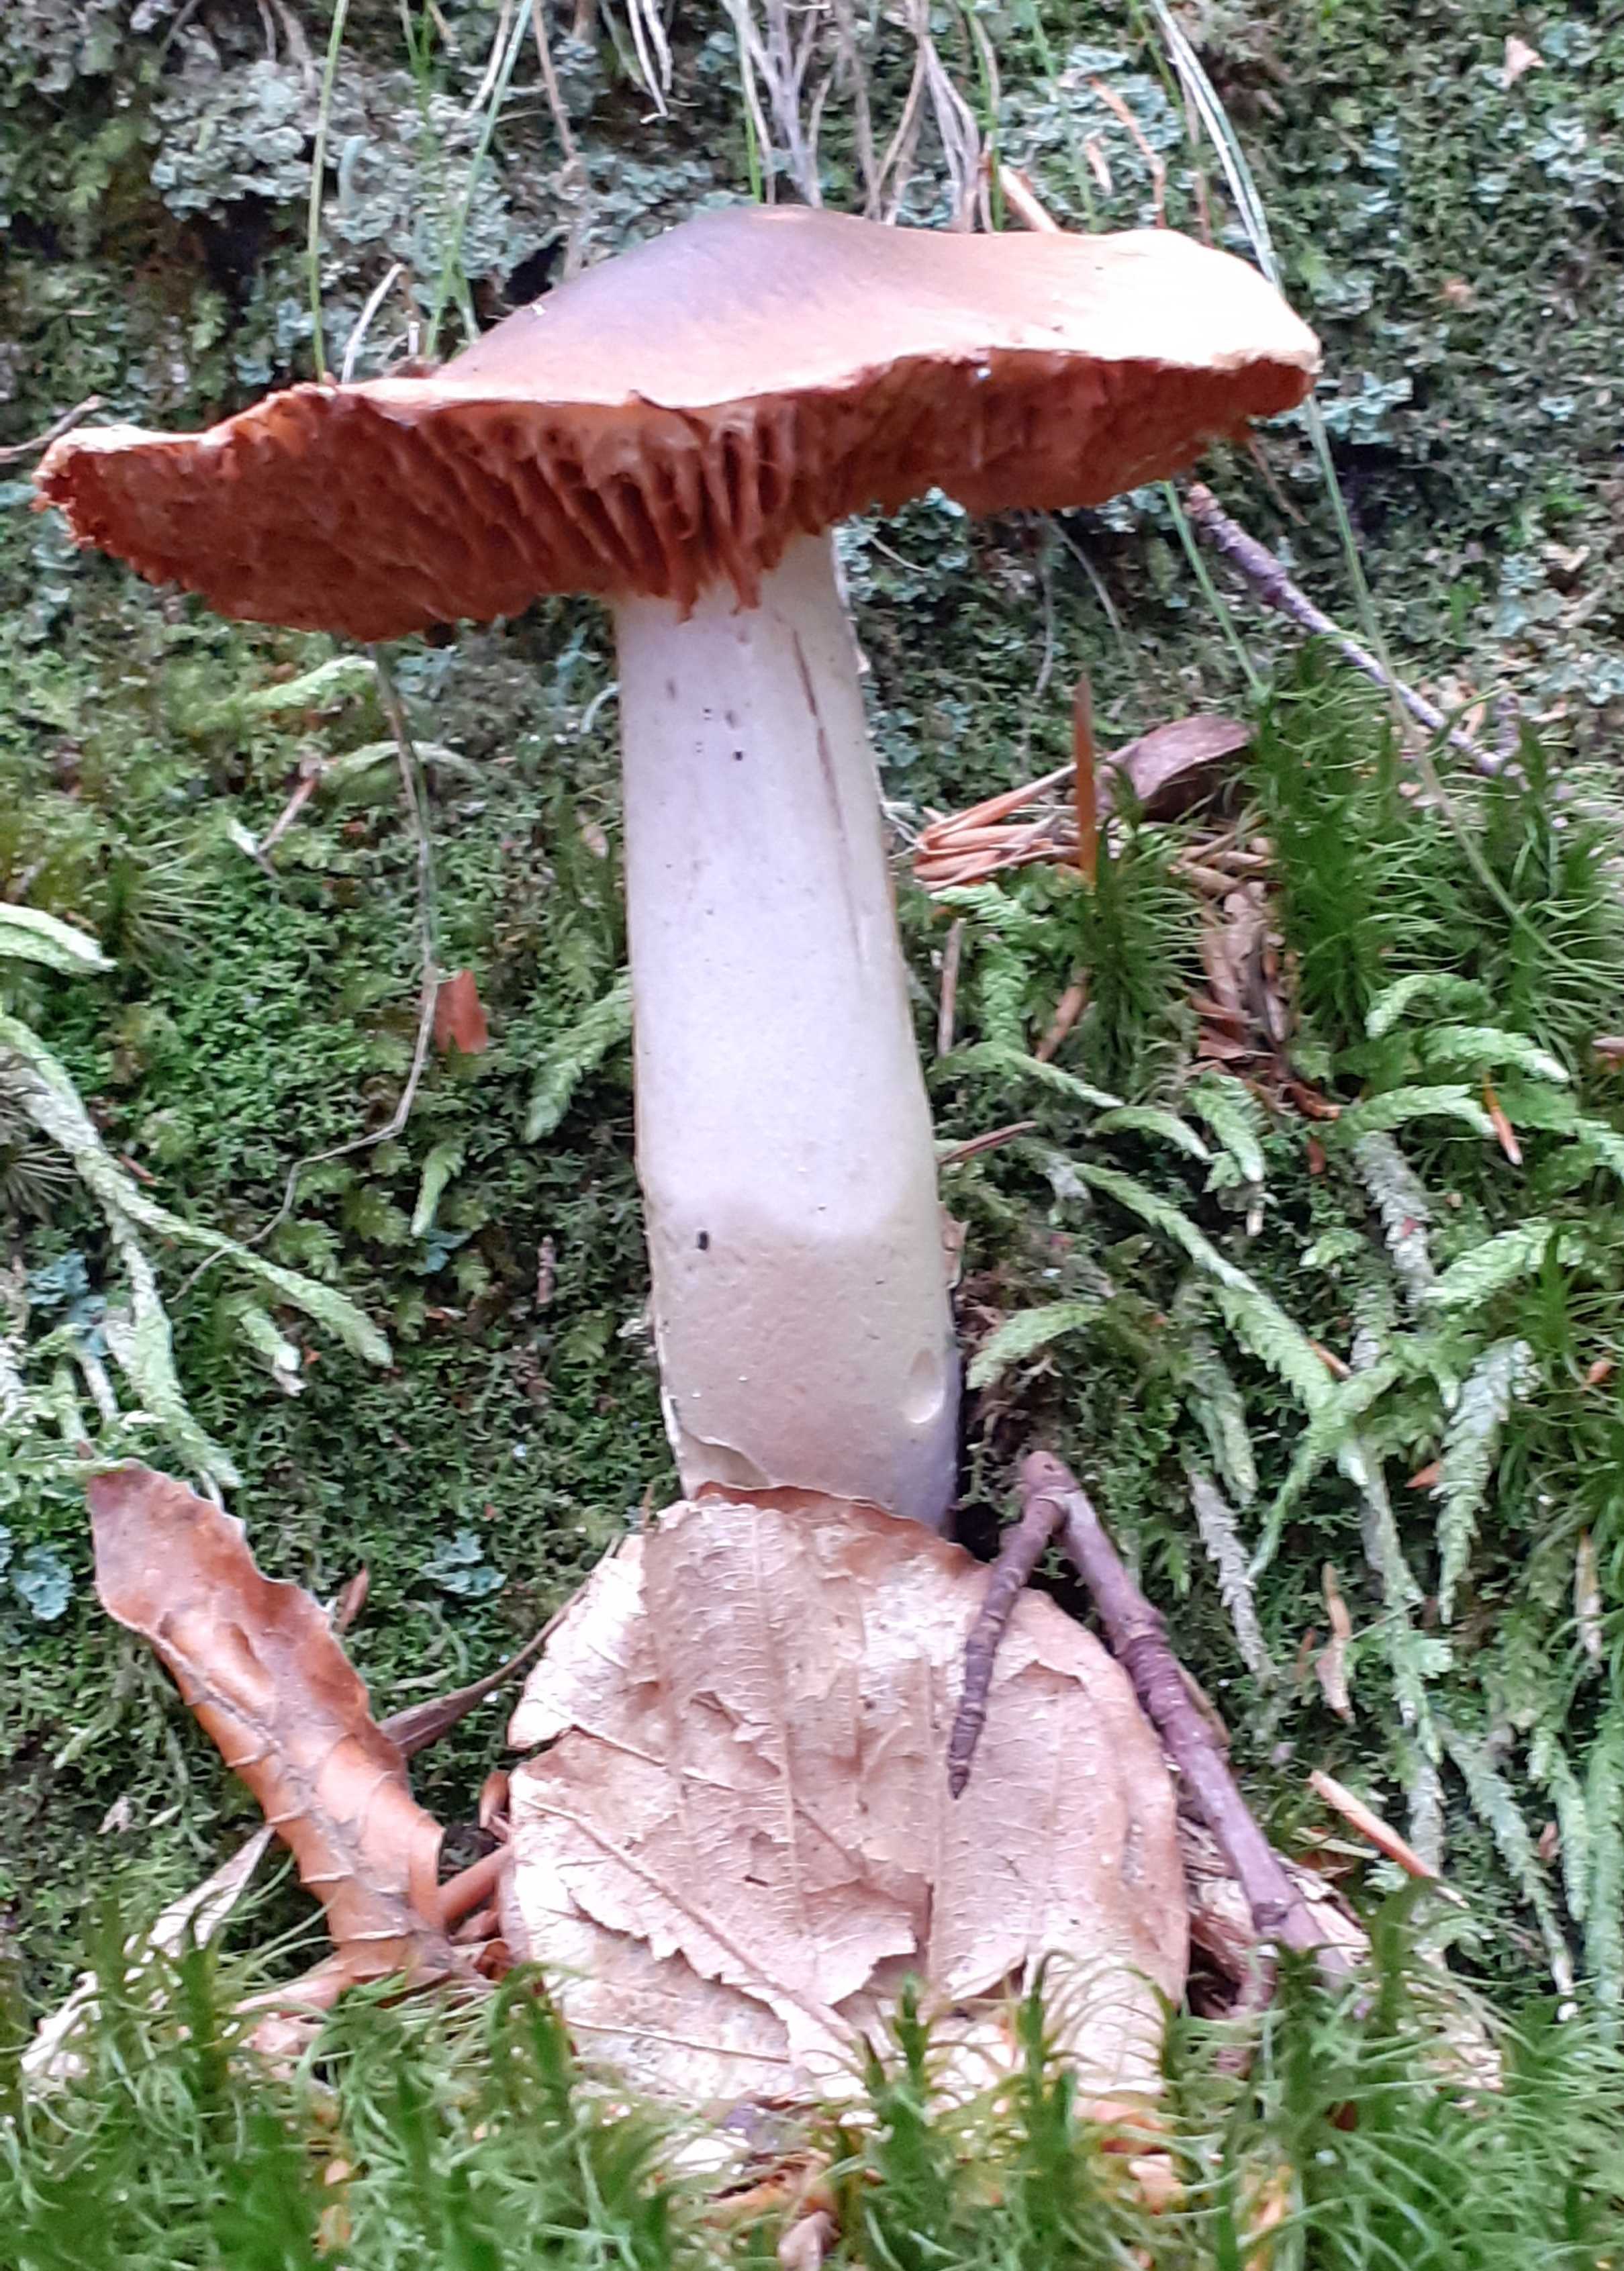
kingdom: Fungi
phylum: Basidiomycota
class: Agaricomycetes
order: Agaricales
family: Cortinariaceae
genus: Cortinarius
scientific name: Cortinarius elatior
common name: høj slørhat
